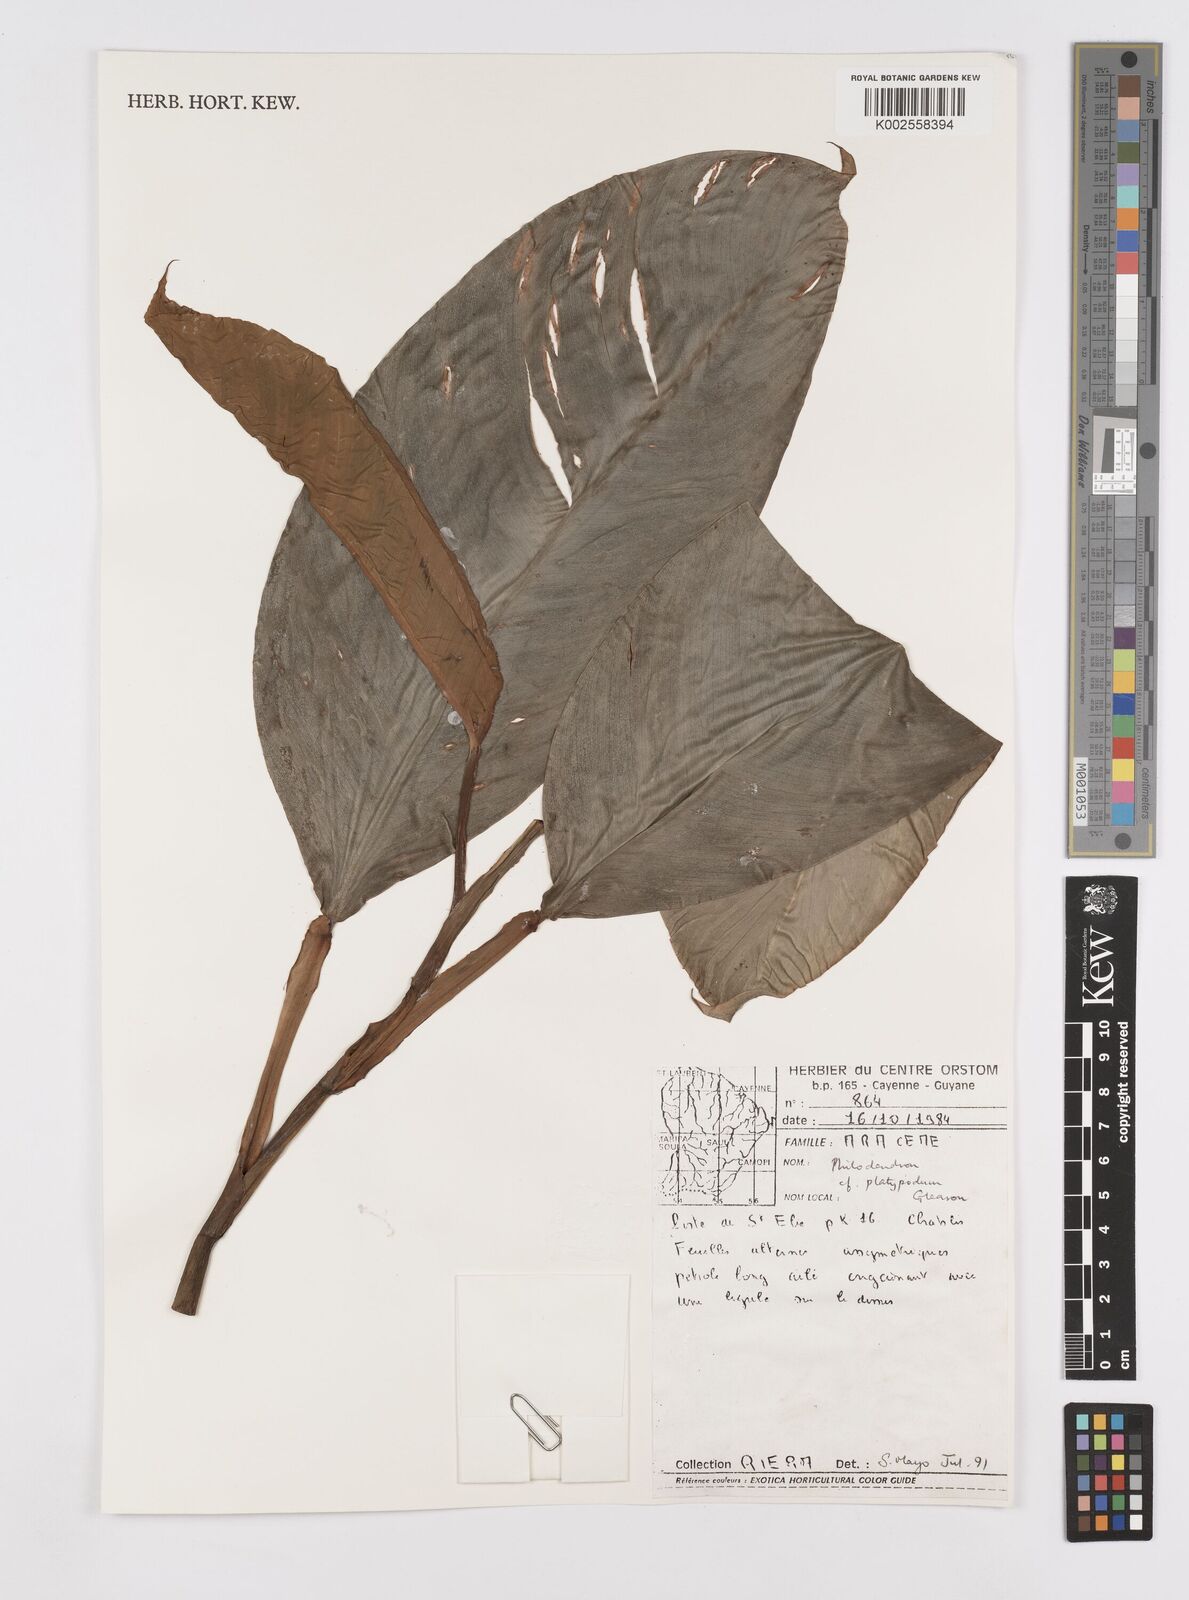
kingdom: Plantae
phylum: Tracheophyta
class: Liliopsida
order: Alismatales
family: Araceae
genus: Philodendron
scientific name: Philodendron platypodum
